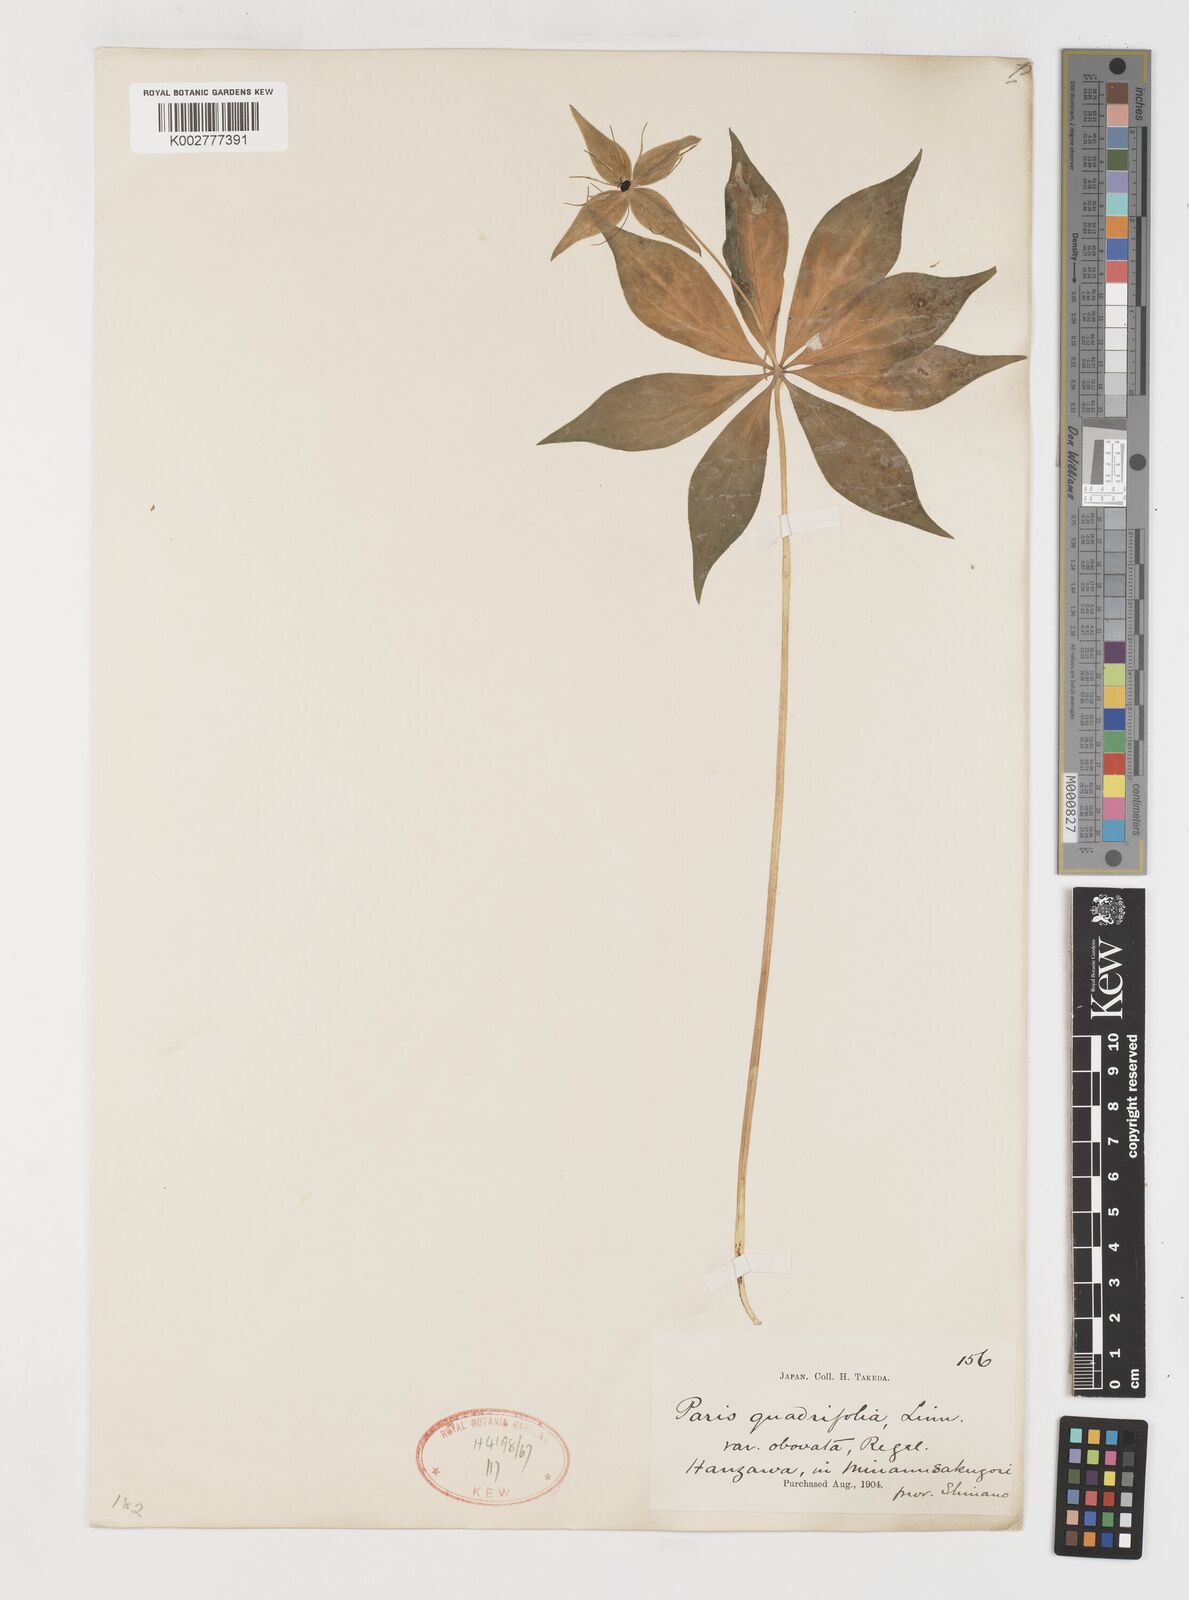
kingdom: Plantae
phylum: Tracheophyta
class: Liliopsida
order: Liliales
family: Melanthiaceae
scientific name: Melanthiaceae
